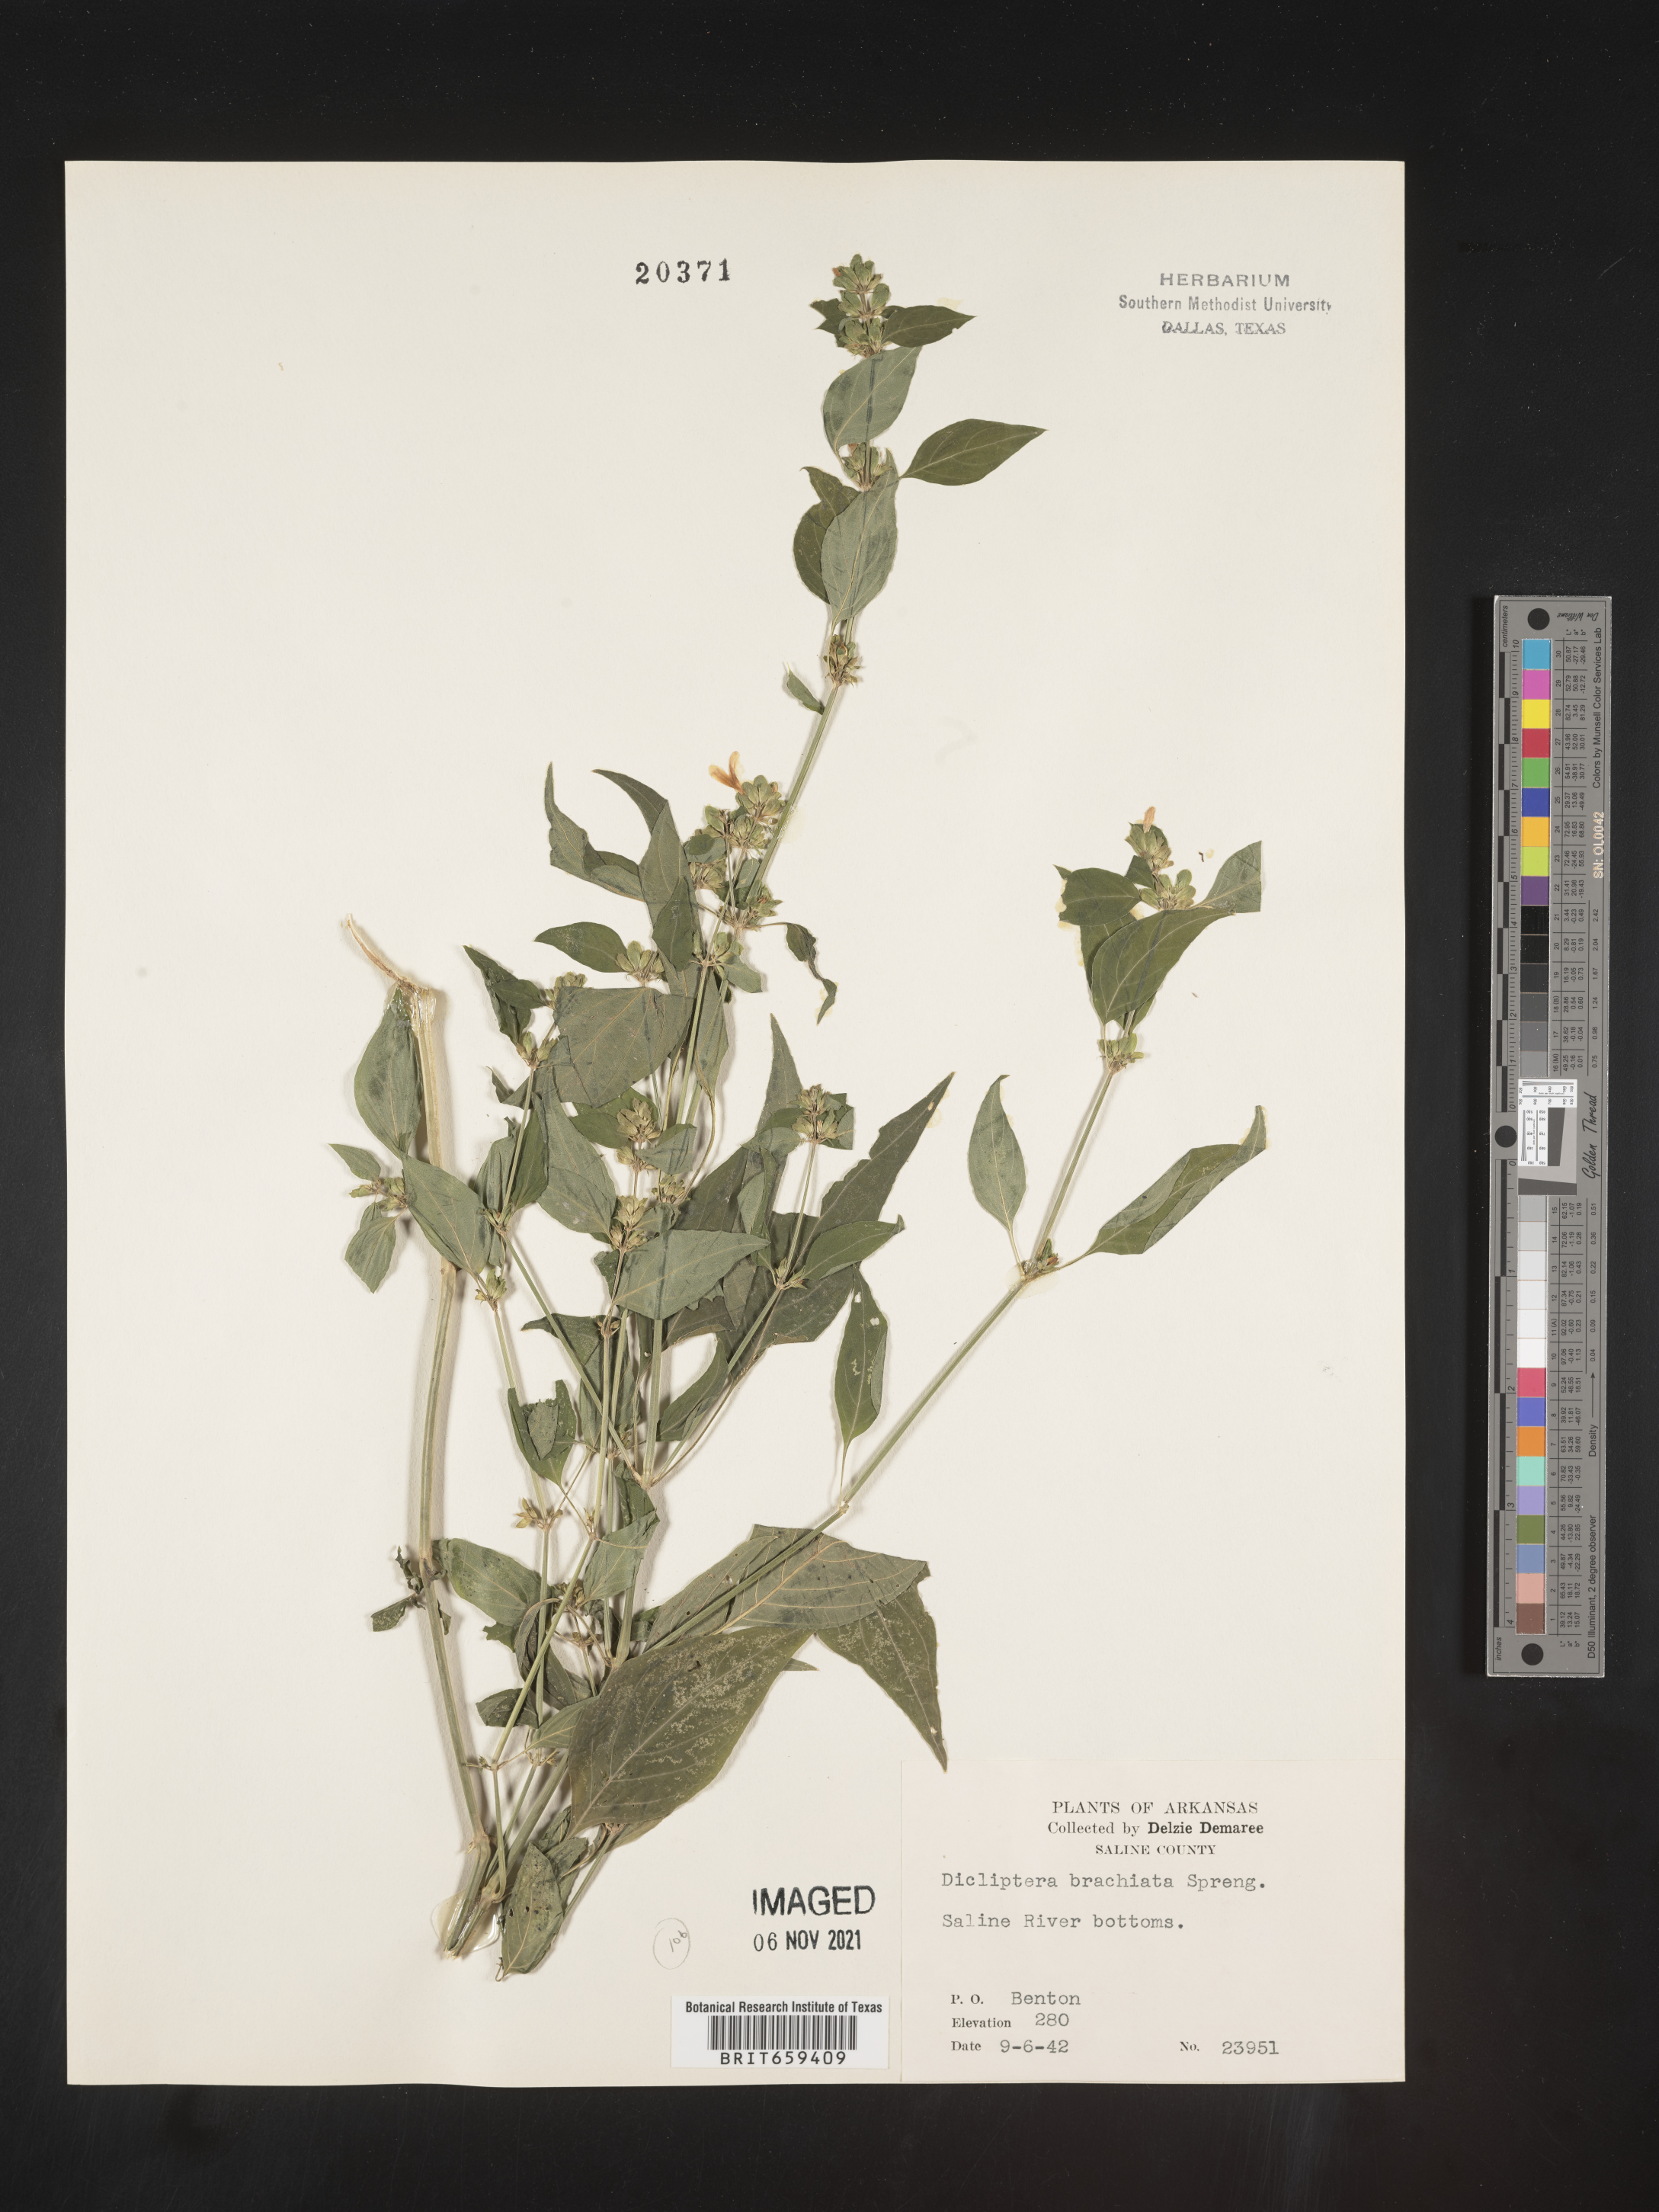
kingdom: Plantae
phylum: Tracheophyta
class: Magnoliopsida
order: Lamiales
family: Acanthaceae
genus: Dicliptera
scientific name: Dicliptera brachiata
